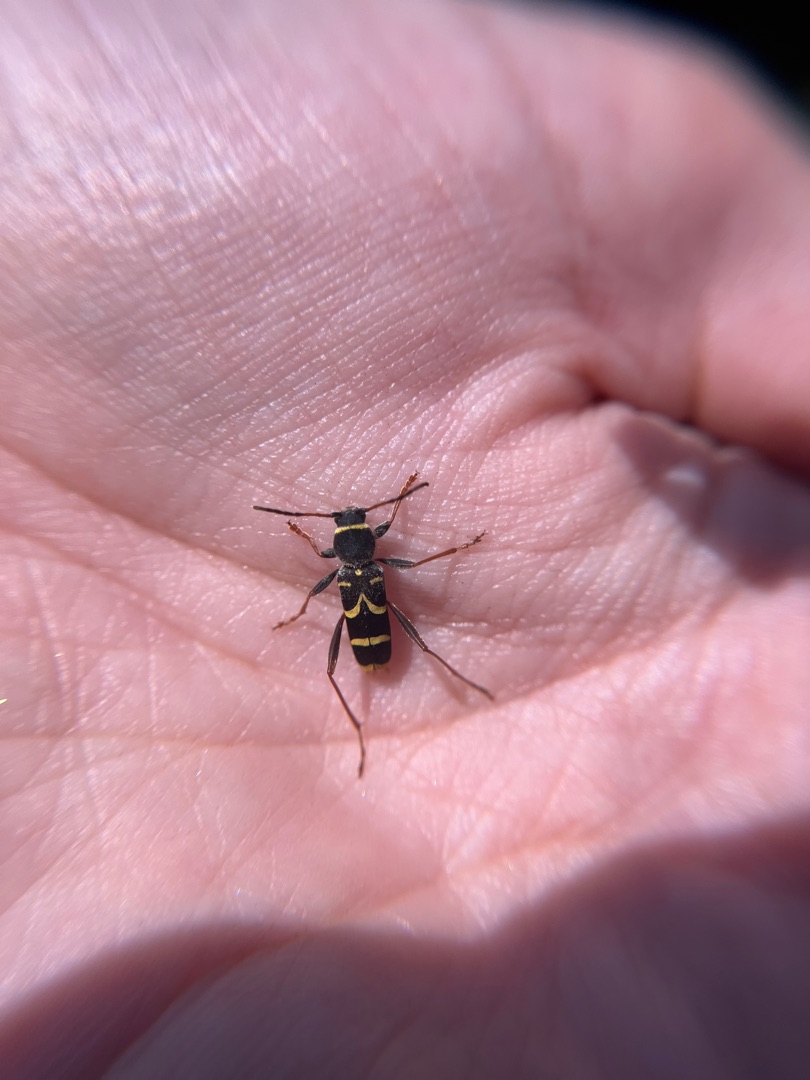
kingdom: Animalia
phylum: Arthropoda
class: Insecta
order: Coleoptera
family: Cerambycidae
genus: Clytus
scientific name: Clytus arietis
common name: Lille hvepsebuk
